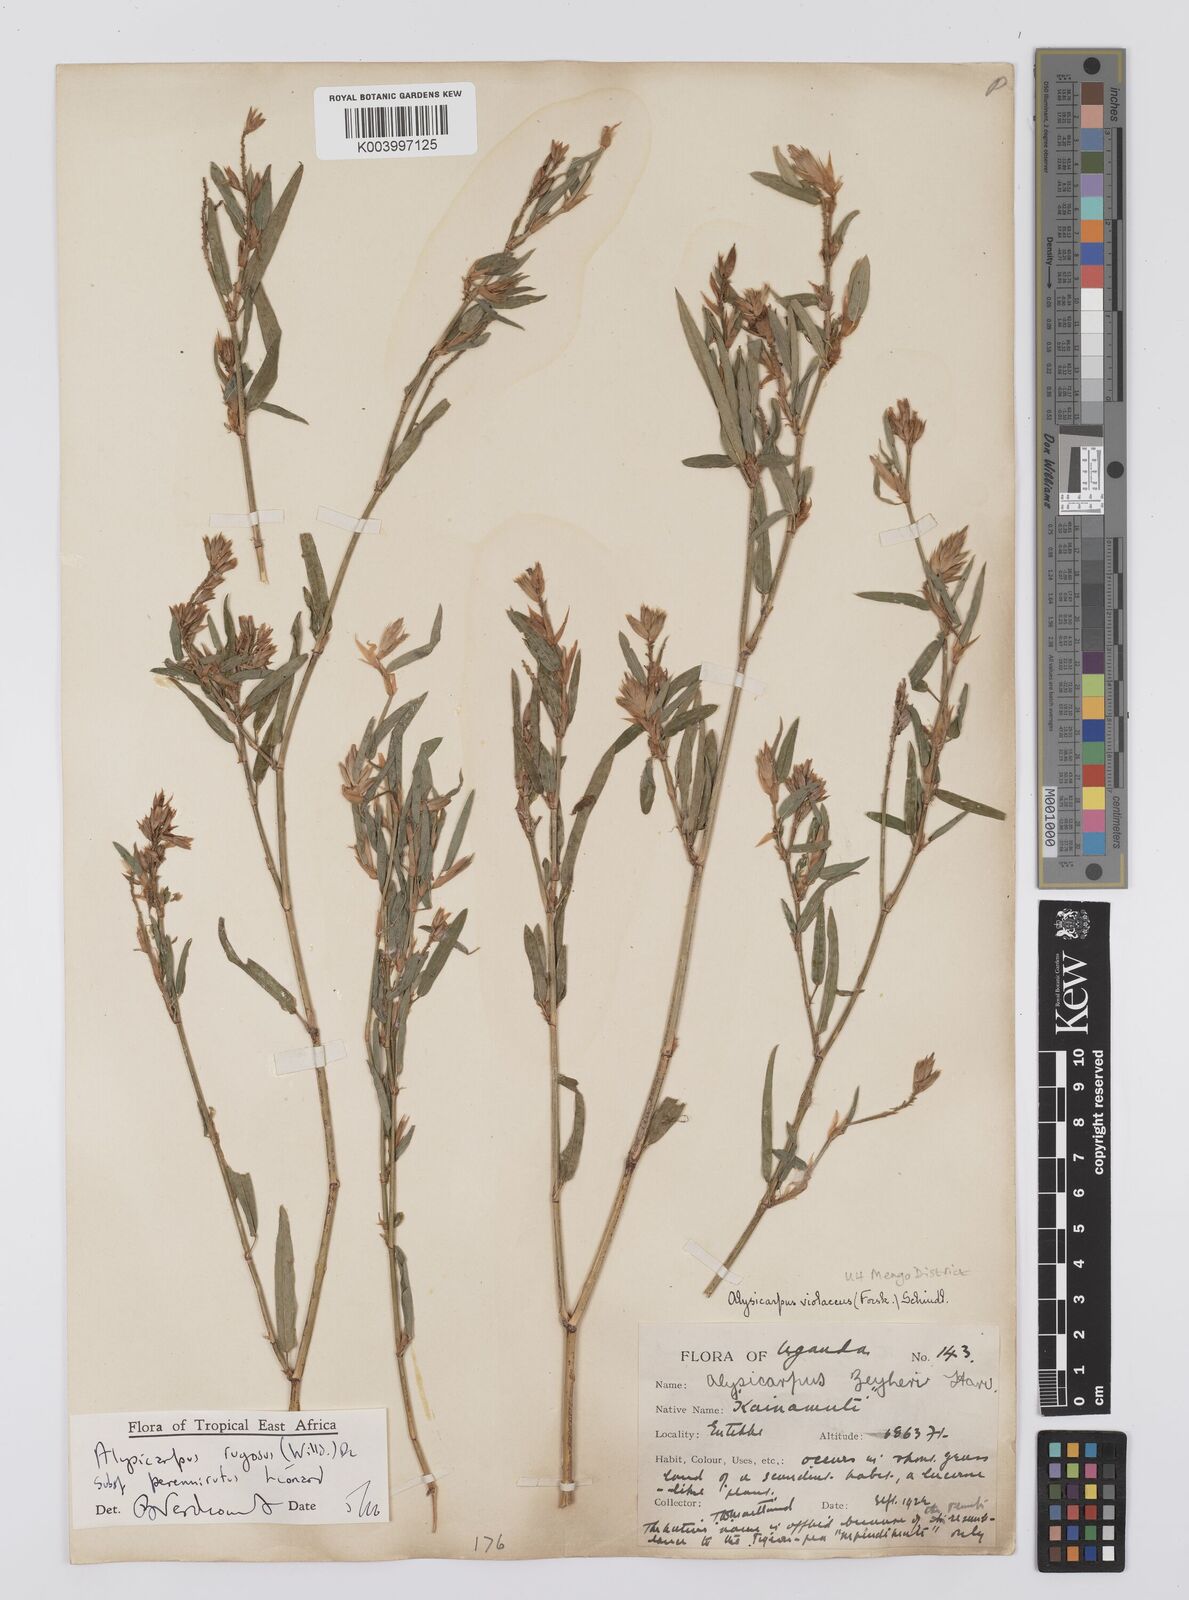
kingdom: Plantae
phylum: Tracheophyta
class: Magnoliopsida
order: Fabales
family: Fabaceae
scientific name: Fabaceae
